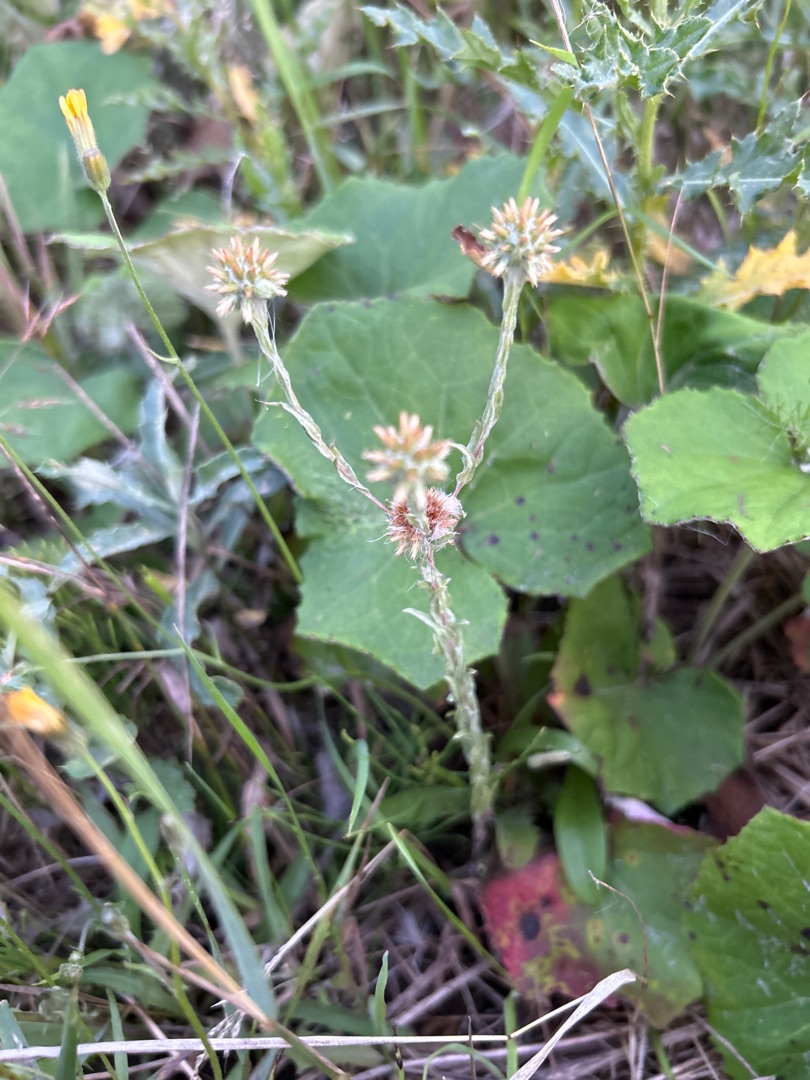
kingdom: Plantae
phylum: Tracheophyta
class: Magnoliopsida
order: Asterales
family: Asteraceae
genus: Filago
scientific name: Filago germanica
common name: Kugle-museurt
